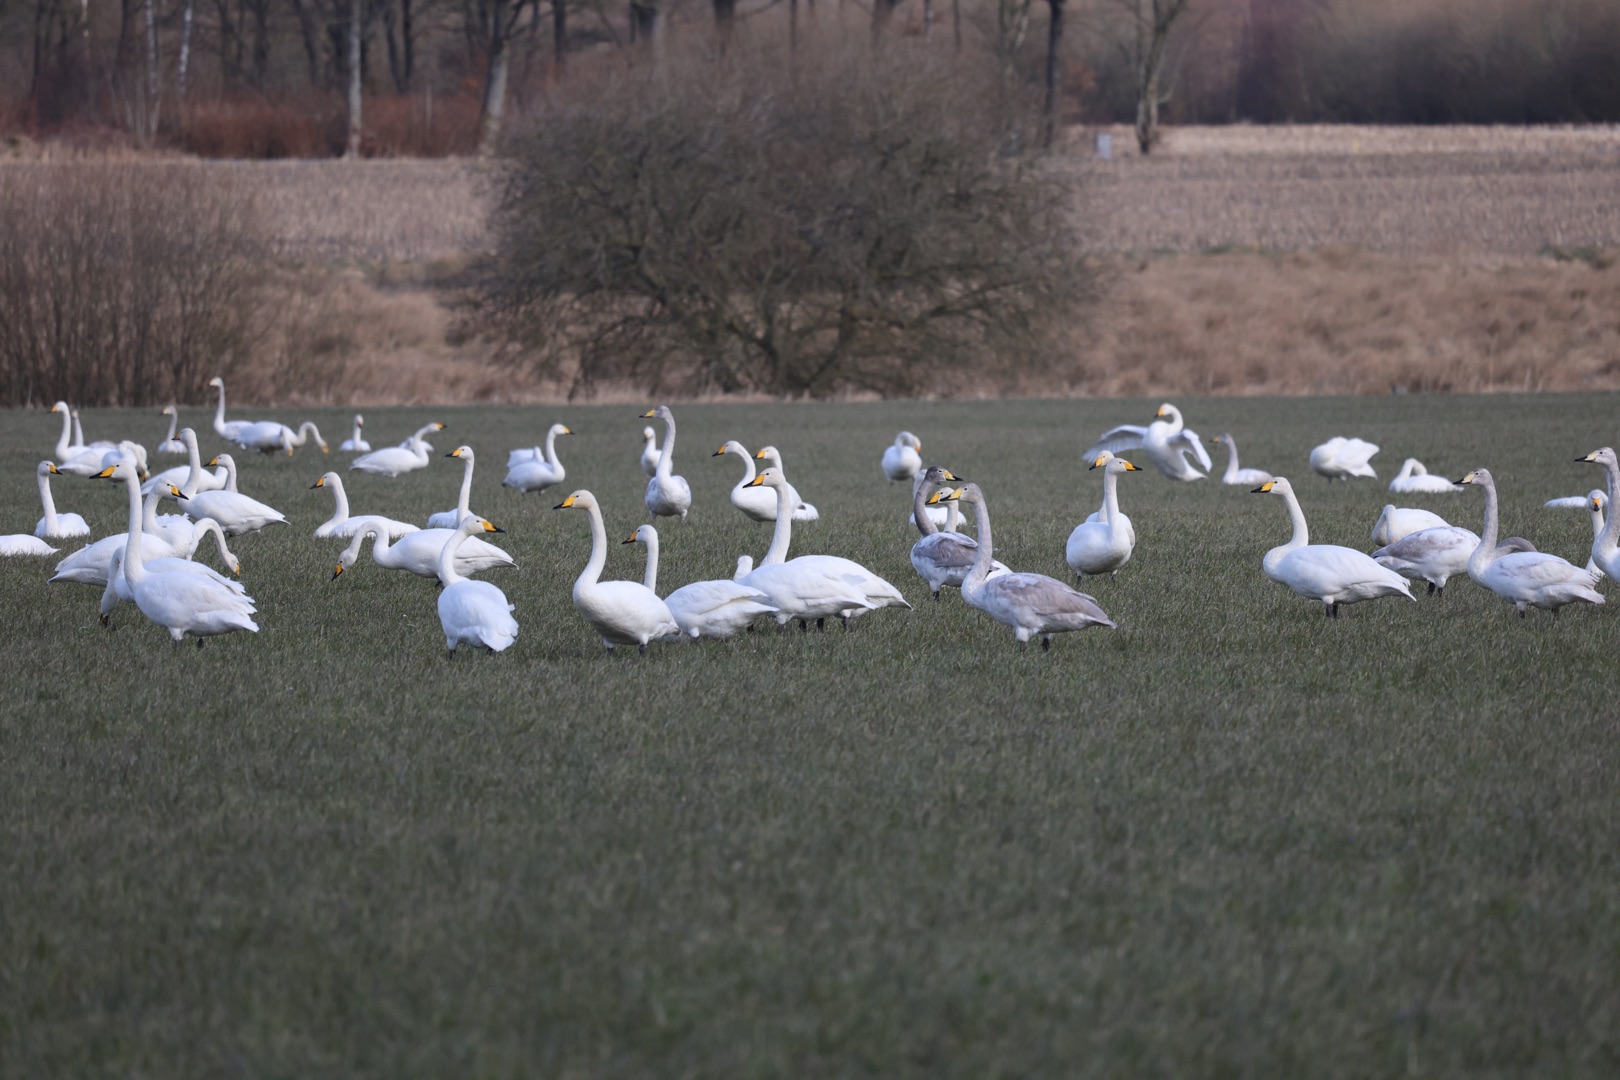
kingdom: Animalia
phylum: Chordata
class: Aves
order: Anseriformes
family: Anatidae
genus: Cygnus
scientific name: Cygnus cygnus
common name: Sangsvane
